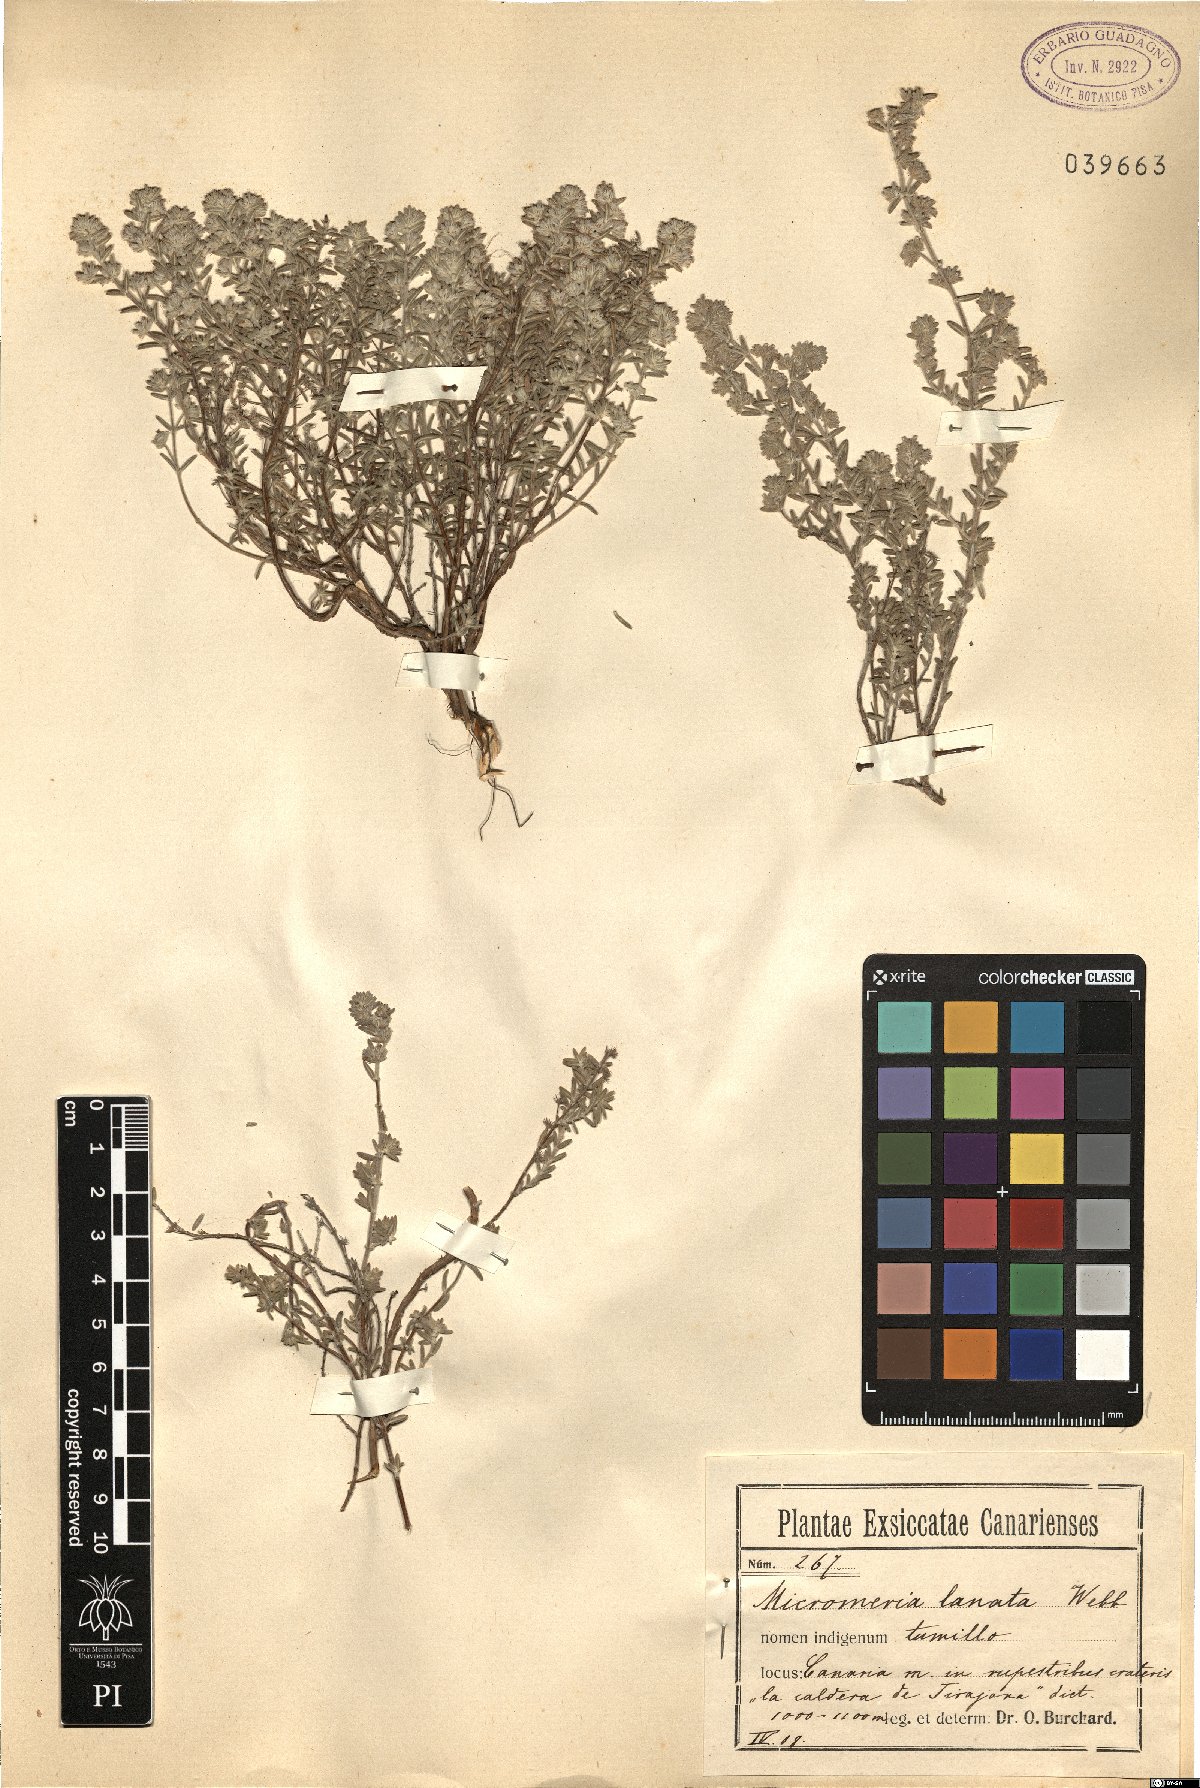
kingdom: Plantae
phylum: Tracheophyta
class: Magnoliopsida
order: Lamiales
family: Lamiaceae
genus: Micromeria
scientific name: Micromeria lanata
